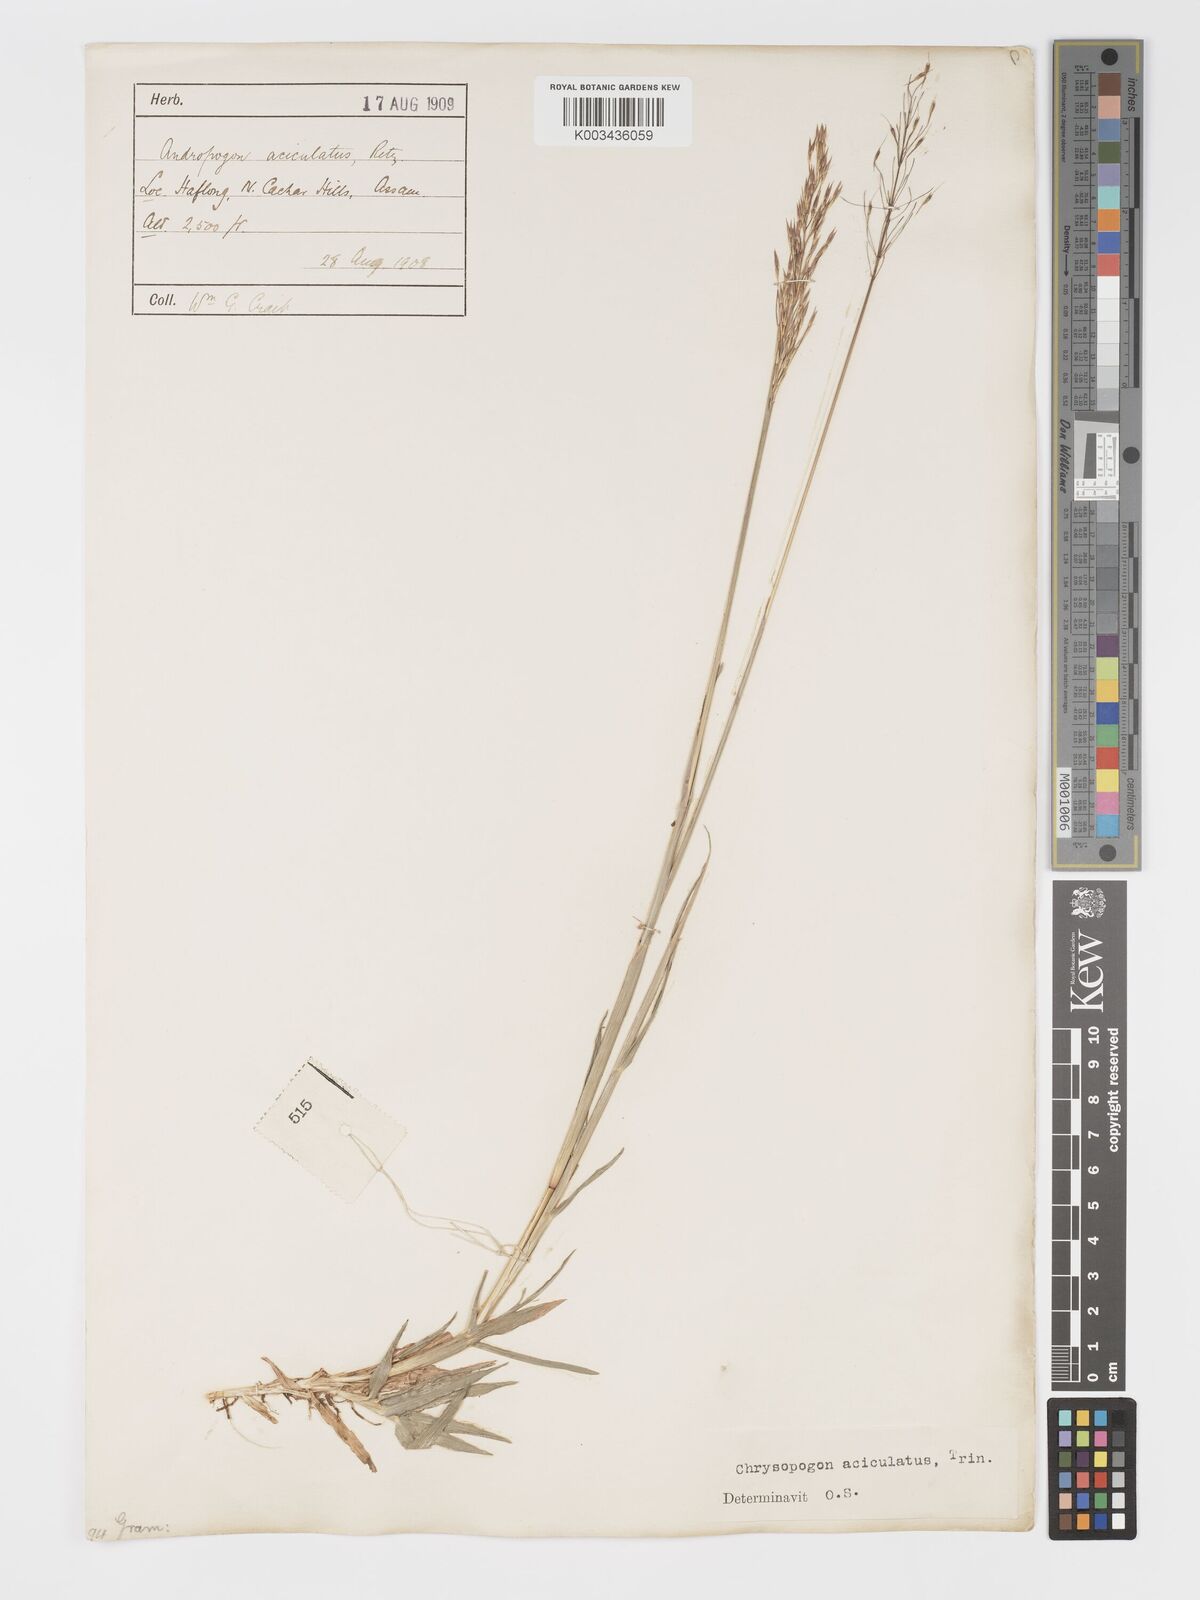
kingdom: Plantae
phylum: Tracheophyta
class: Liliopsida
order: Poales
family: Poaceae
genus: Chrysopogon
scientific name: Chrysopogon aciculatus
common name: Pilipiliula
